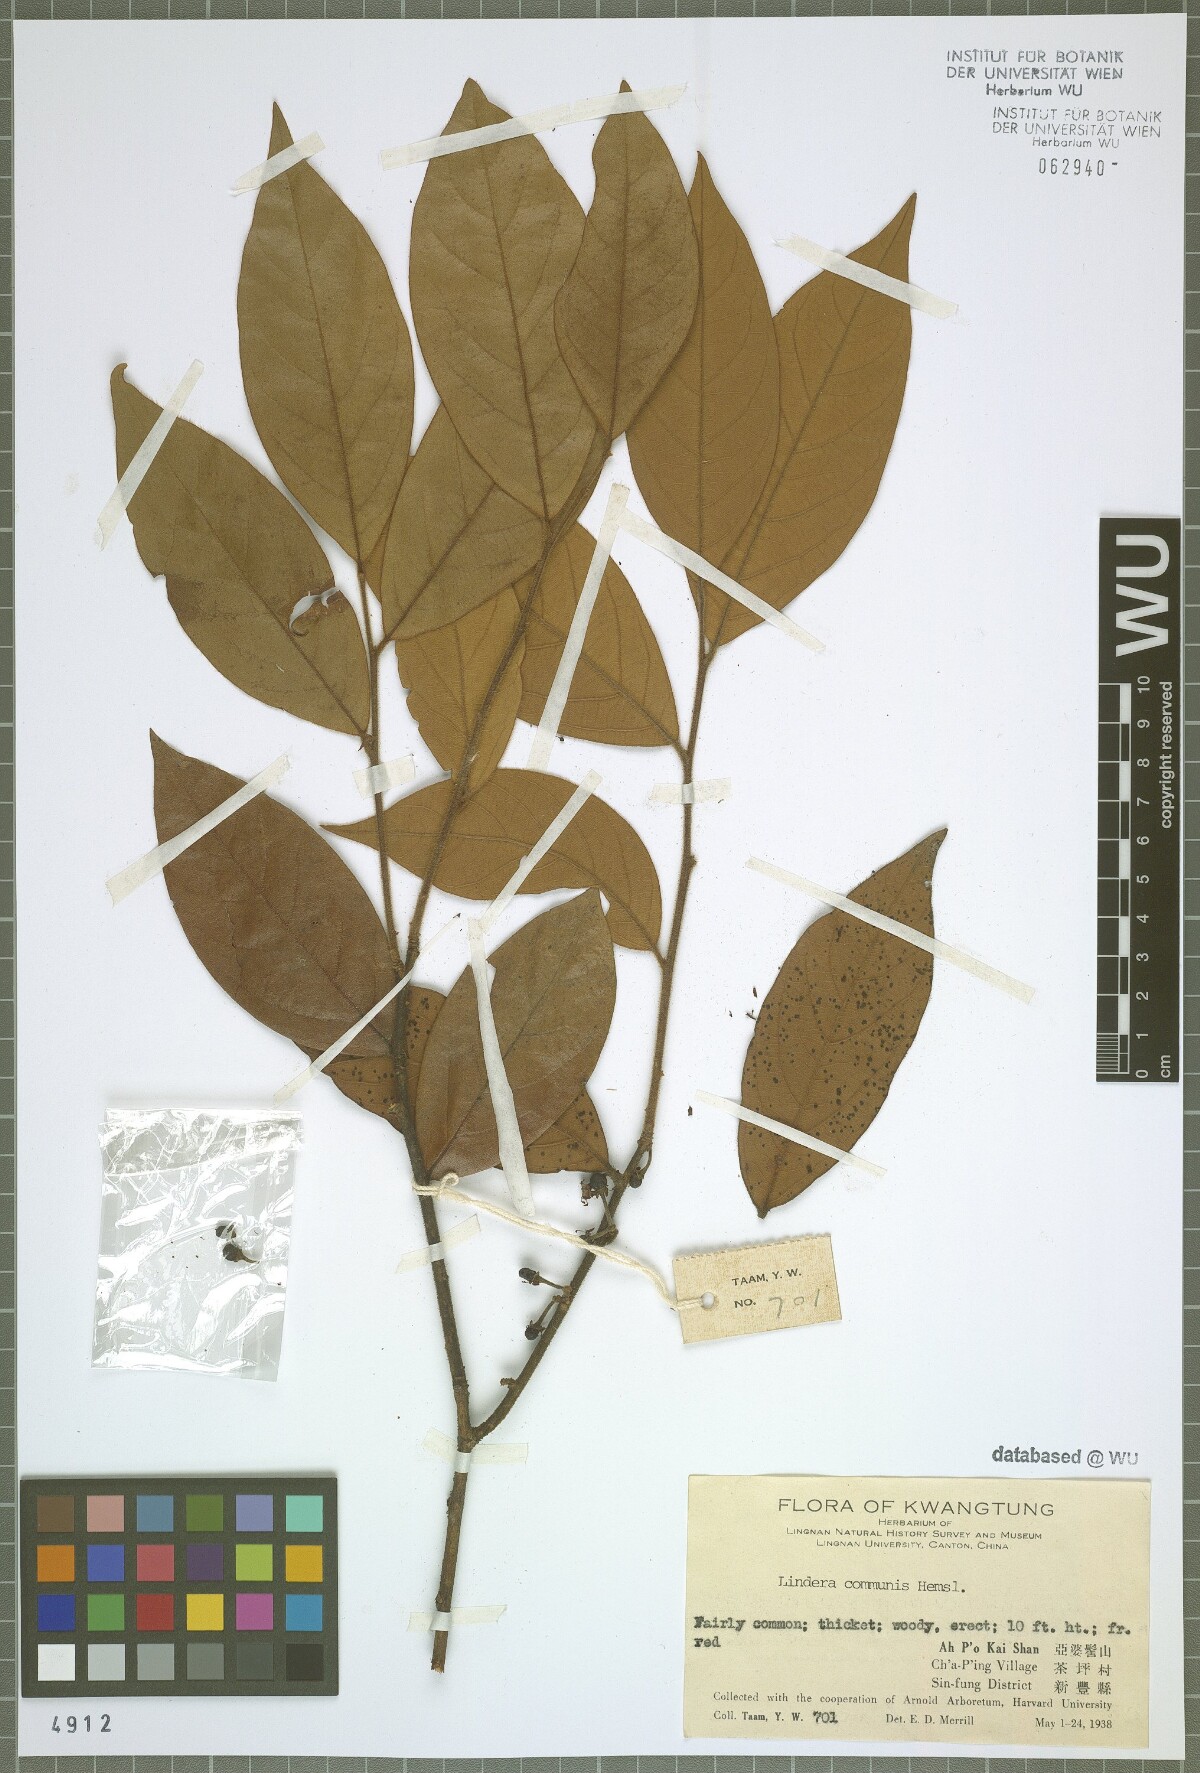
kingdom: Plantae
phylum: Tracheophyta
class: Magnoliopsida
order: Laurales
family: Lauraceae
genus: Lindera
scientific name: Lindera communis
